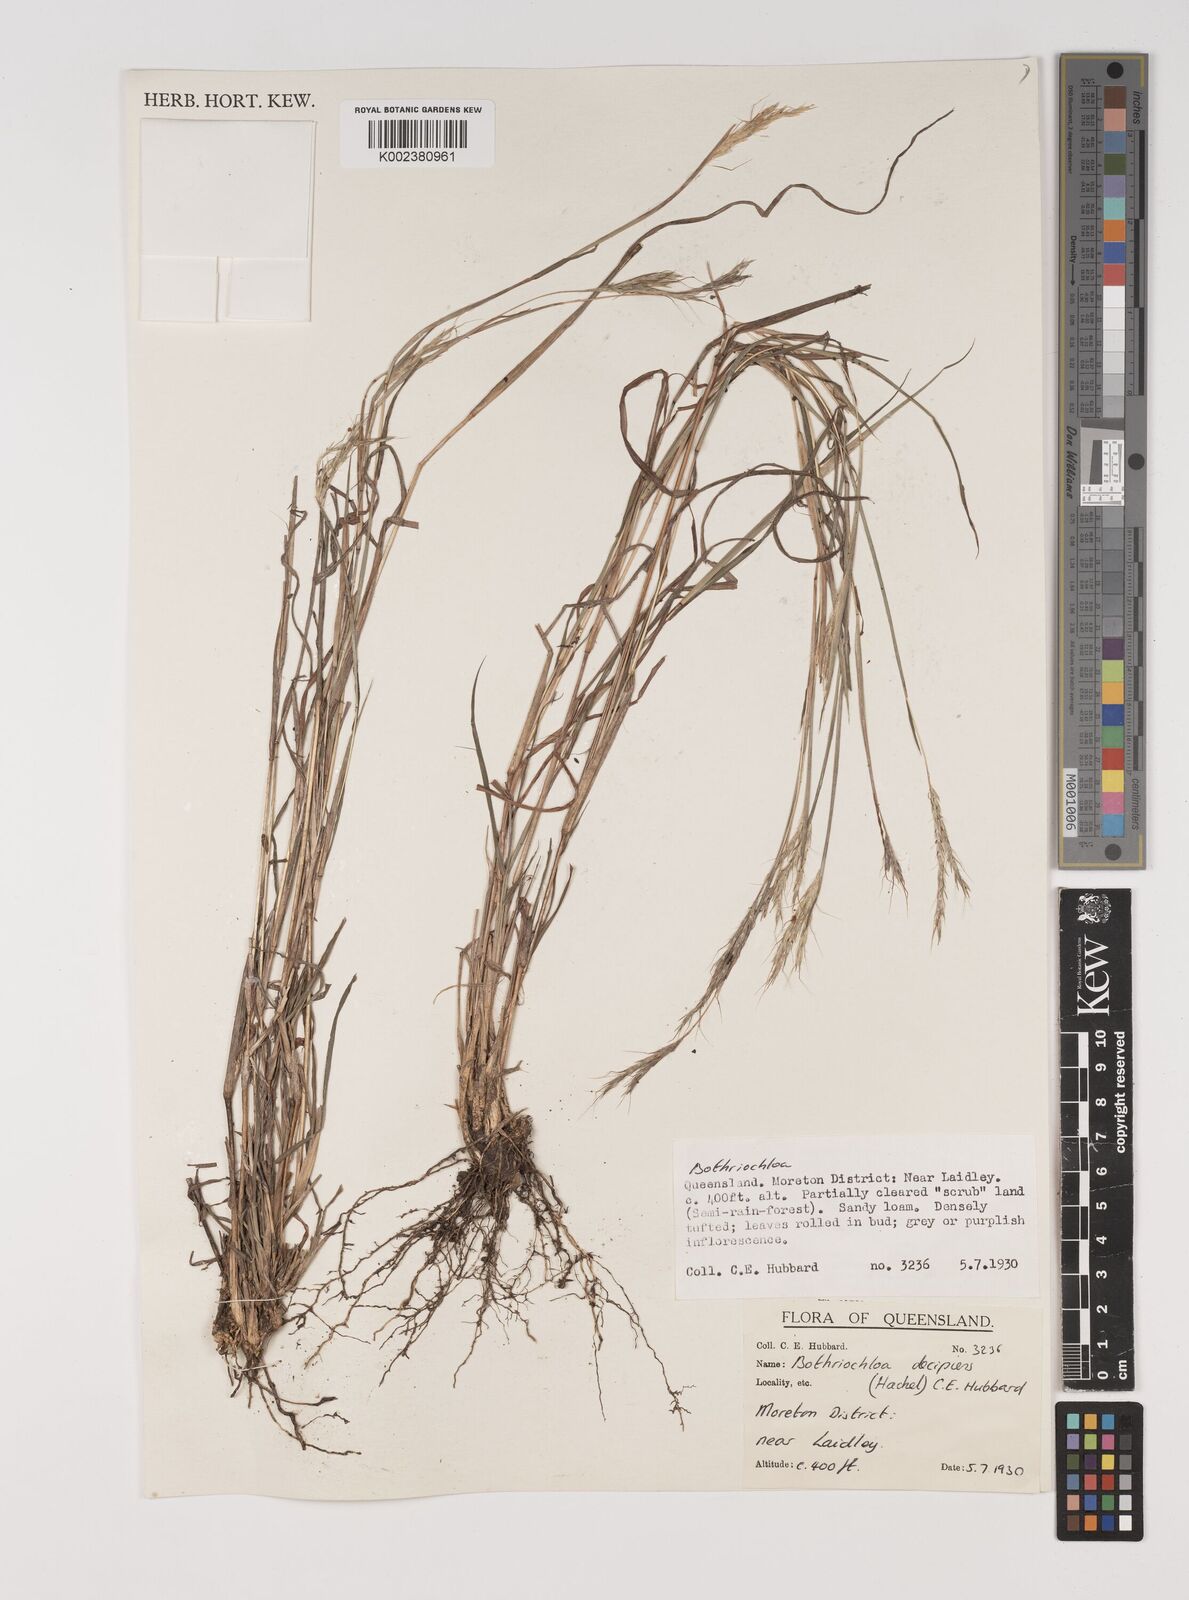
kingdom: Plantae
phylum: Tracheophyta
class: Liliopsida
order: Poales
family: Poaceae
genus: Bothriochloa
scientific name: Bothriochloa decipiens
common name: Pitted-bluegrass
